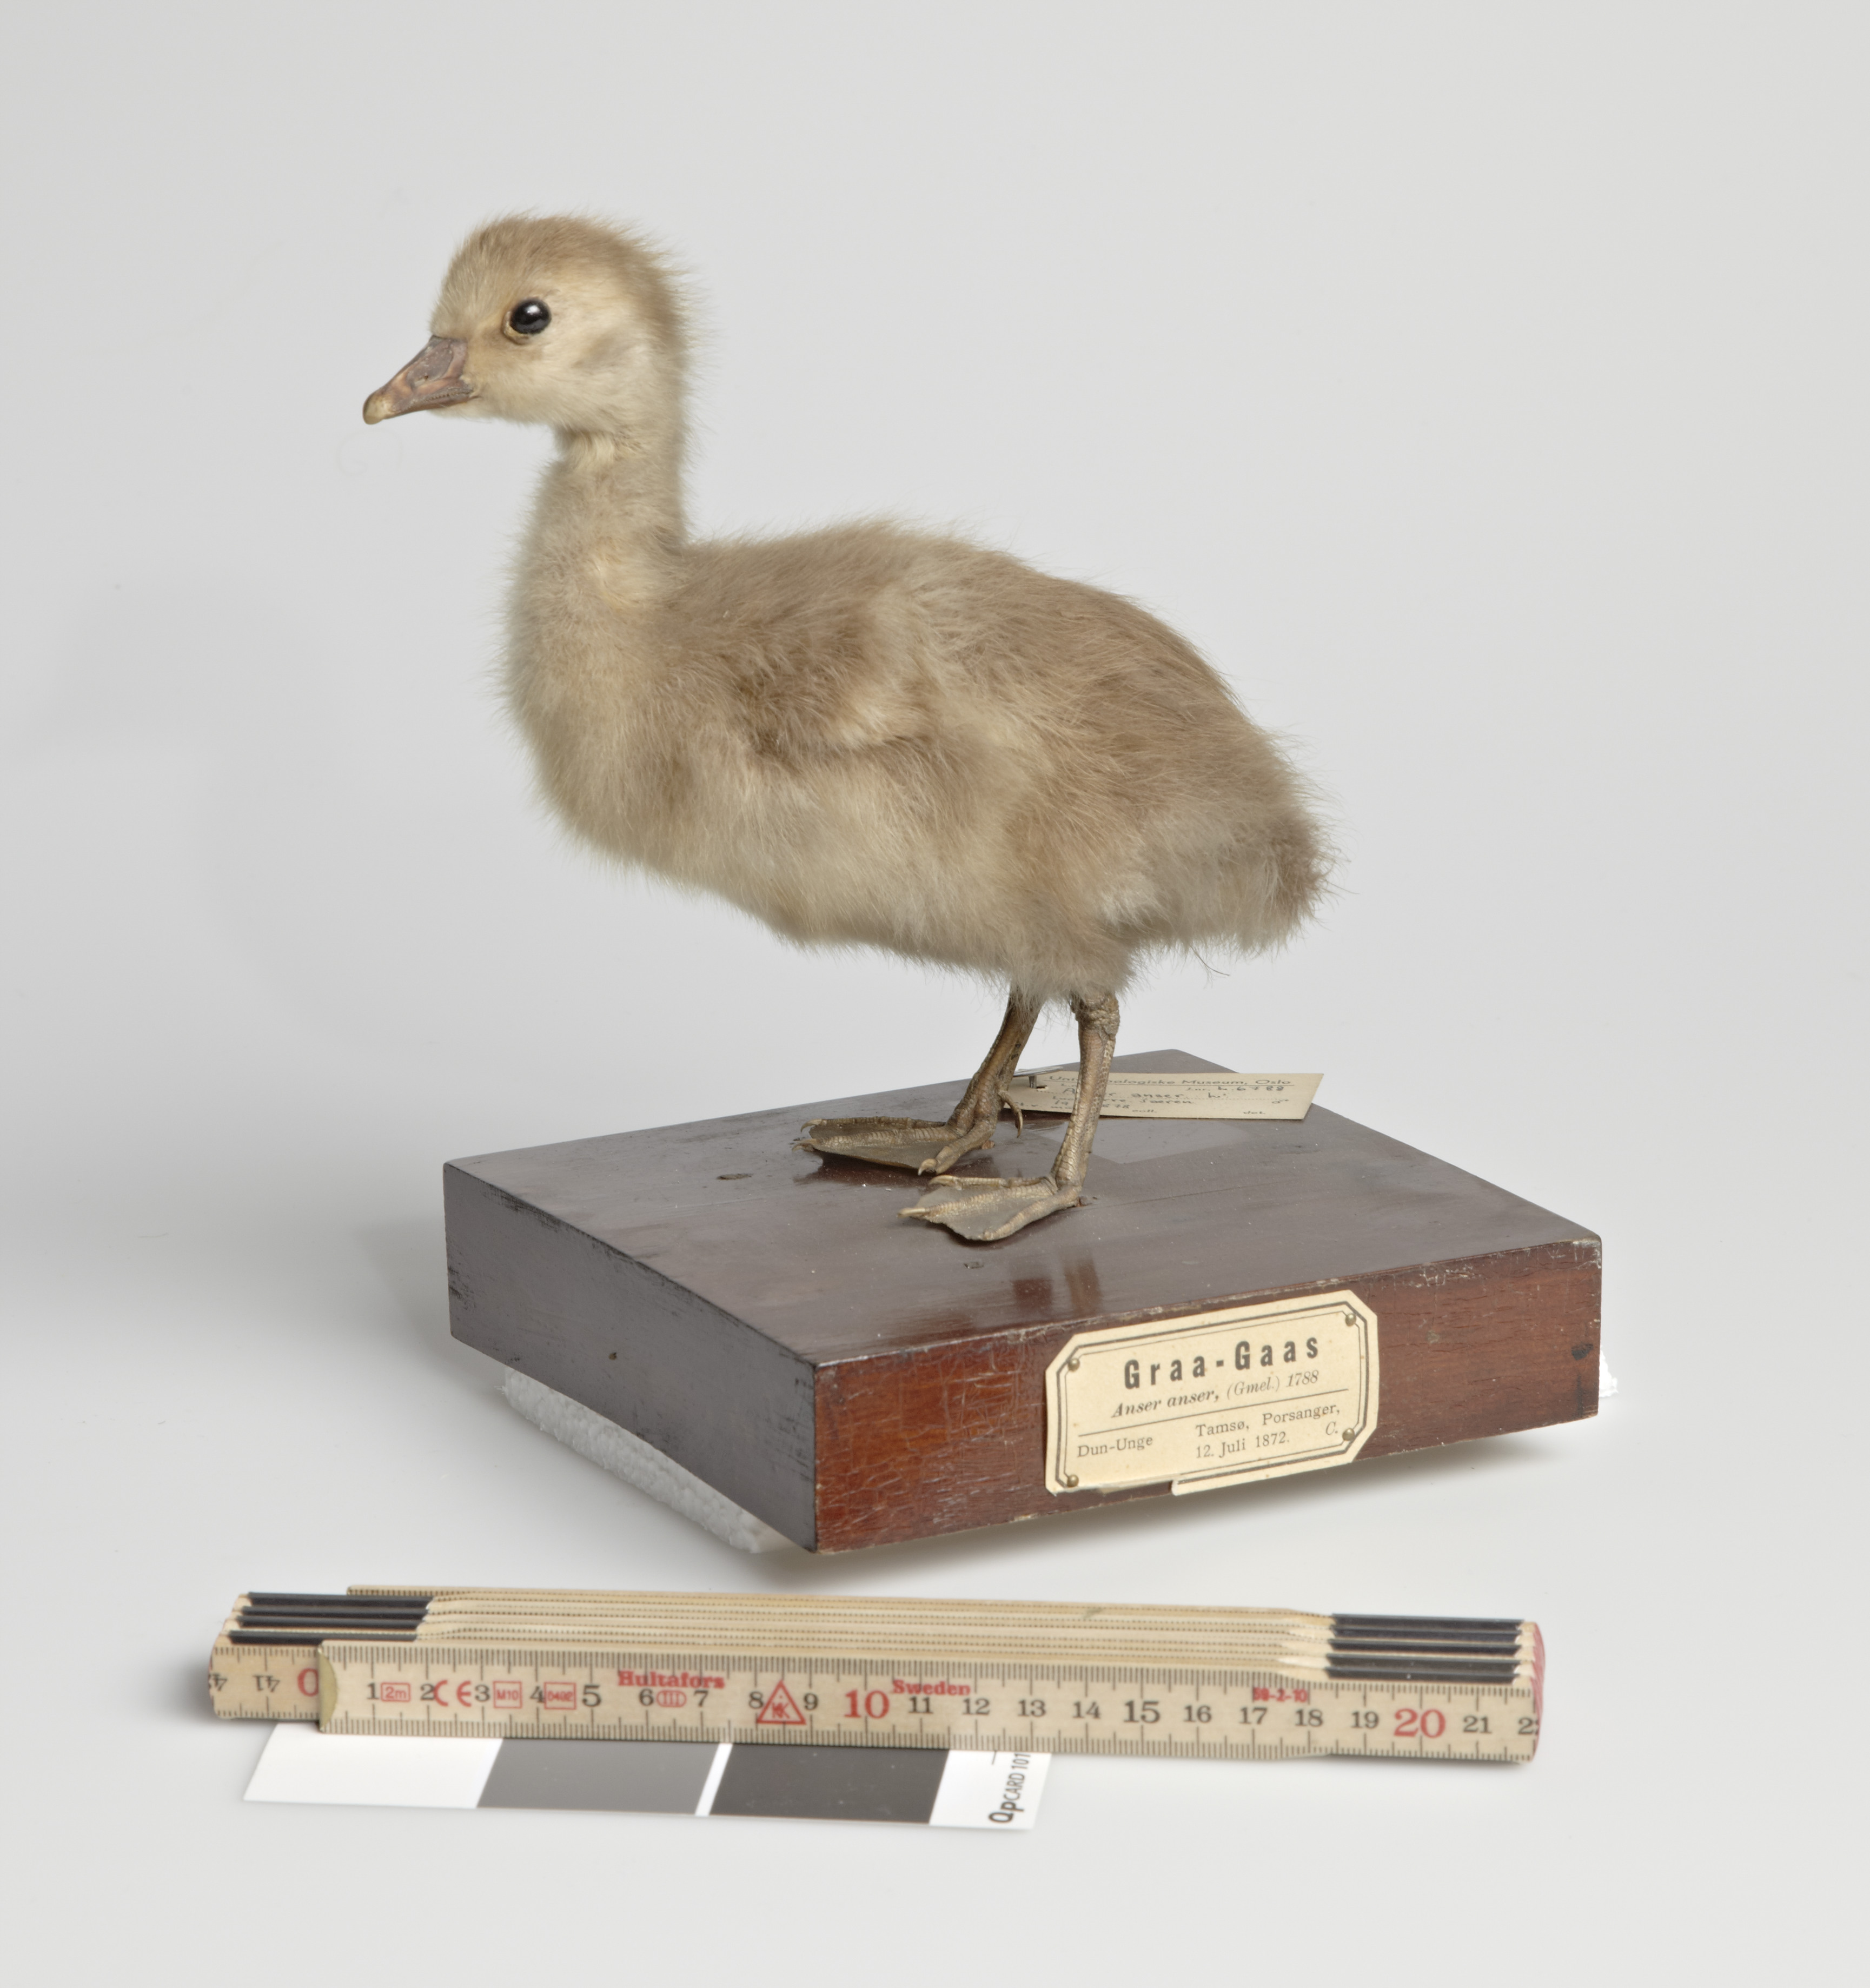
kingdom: Animalia
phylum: Chordata
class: Aves
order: Anseriformes
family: Anatidae
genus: Anser
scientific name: Anser anser
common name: Greylag goose
